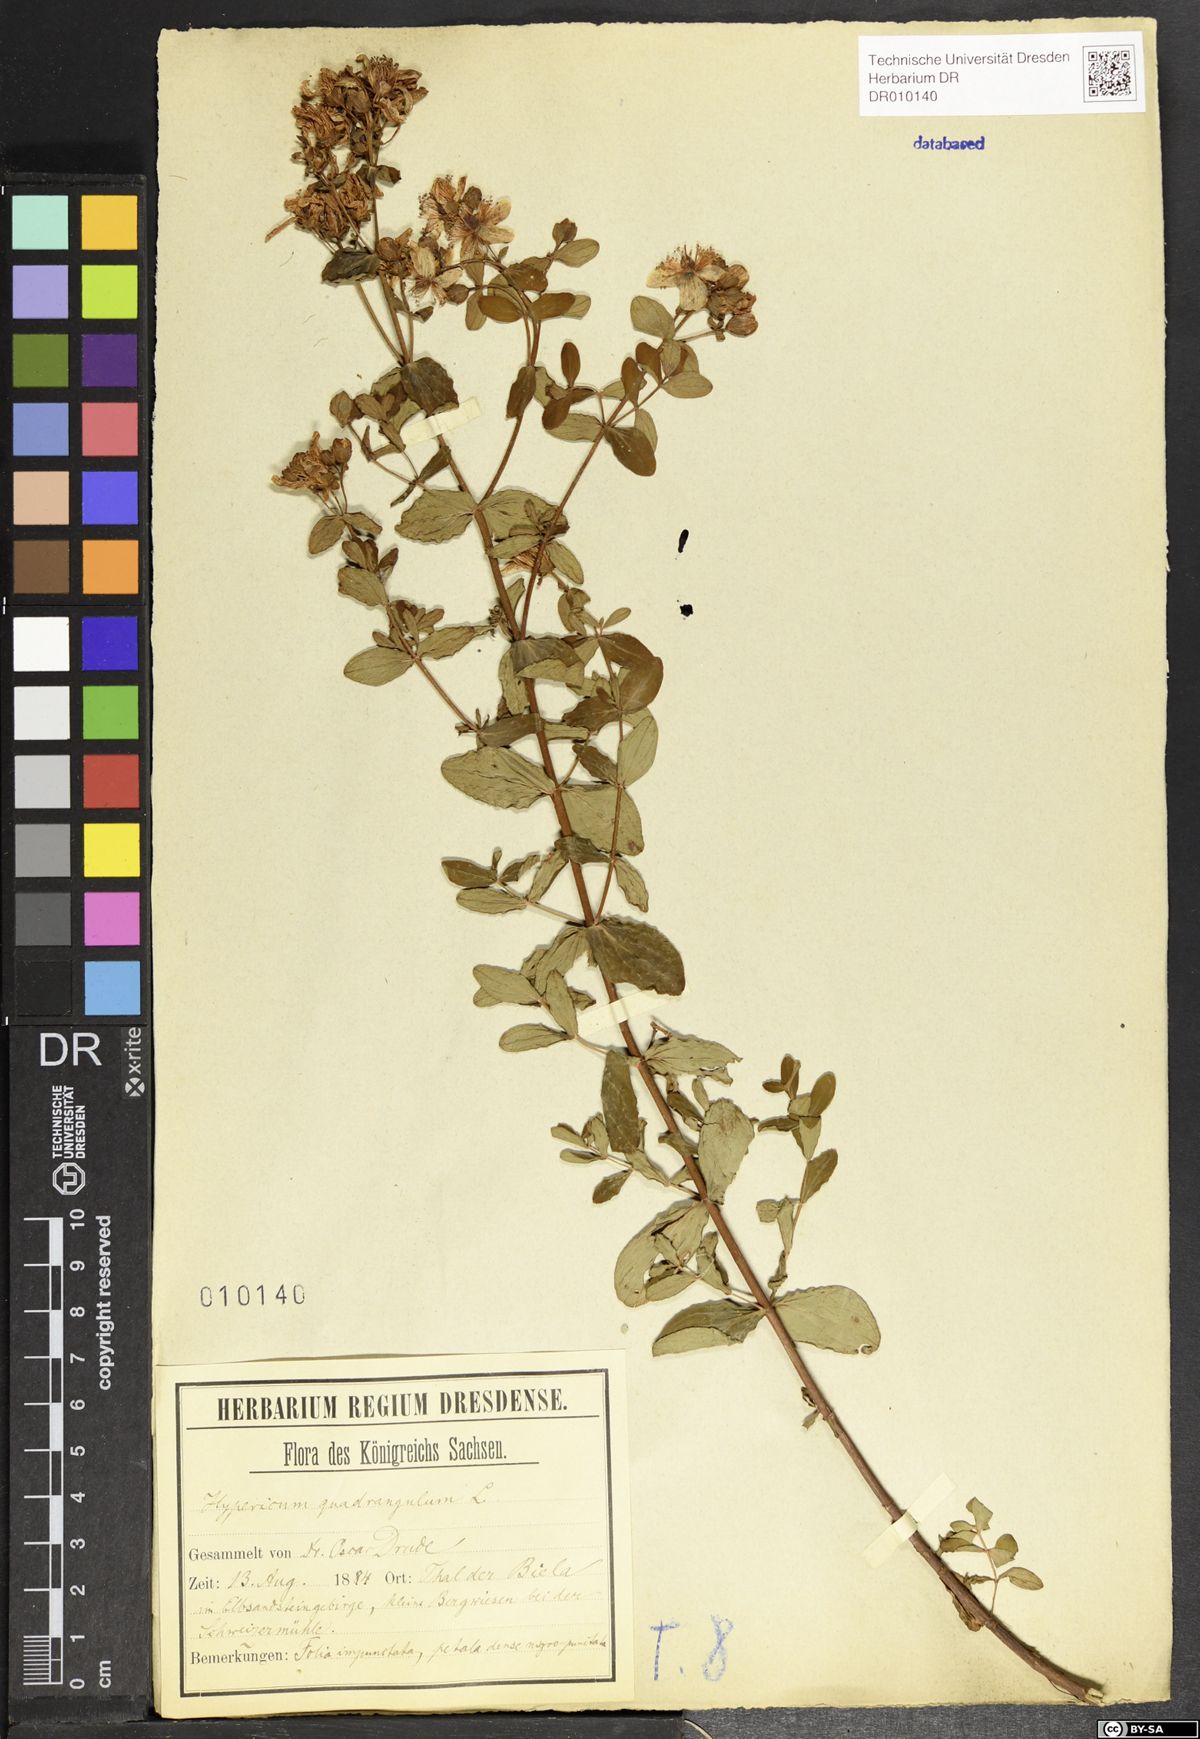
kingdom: Plantae
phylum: Tracheophyta
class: Magnoliopsida
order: Malpighiales
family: Hypericaceae
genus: Hypericum
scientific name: Hypericum maculatum
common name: Imperforate st. john's-wort
